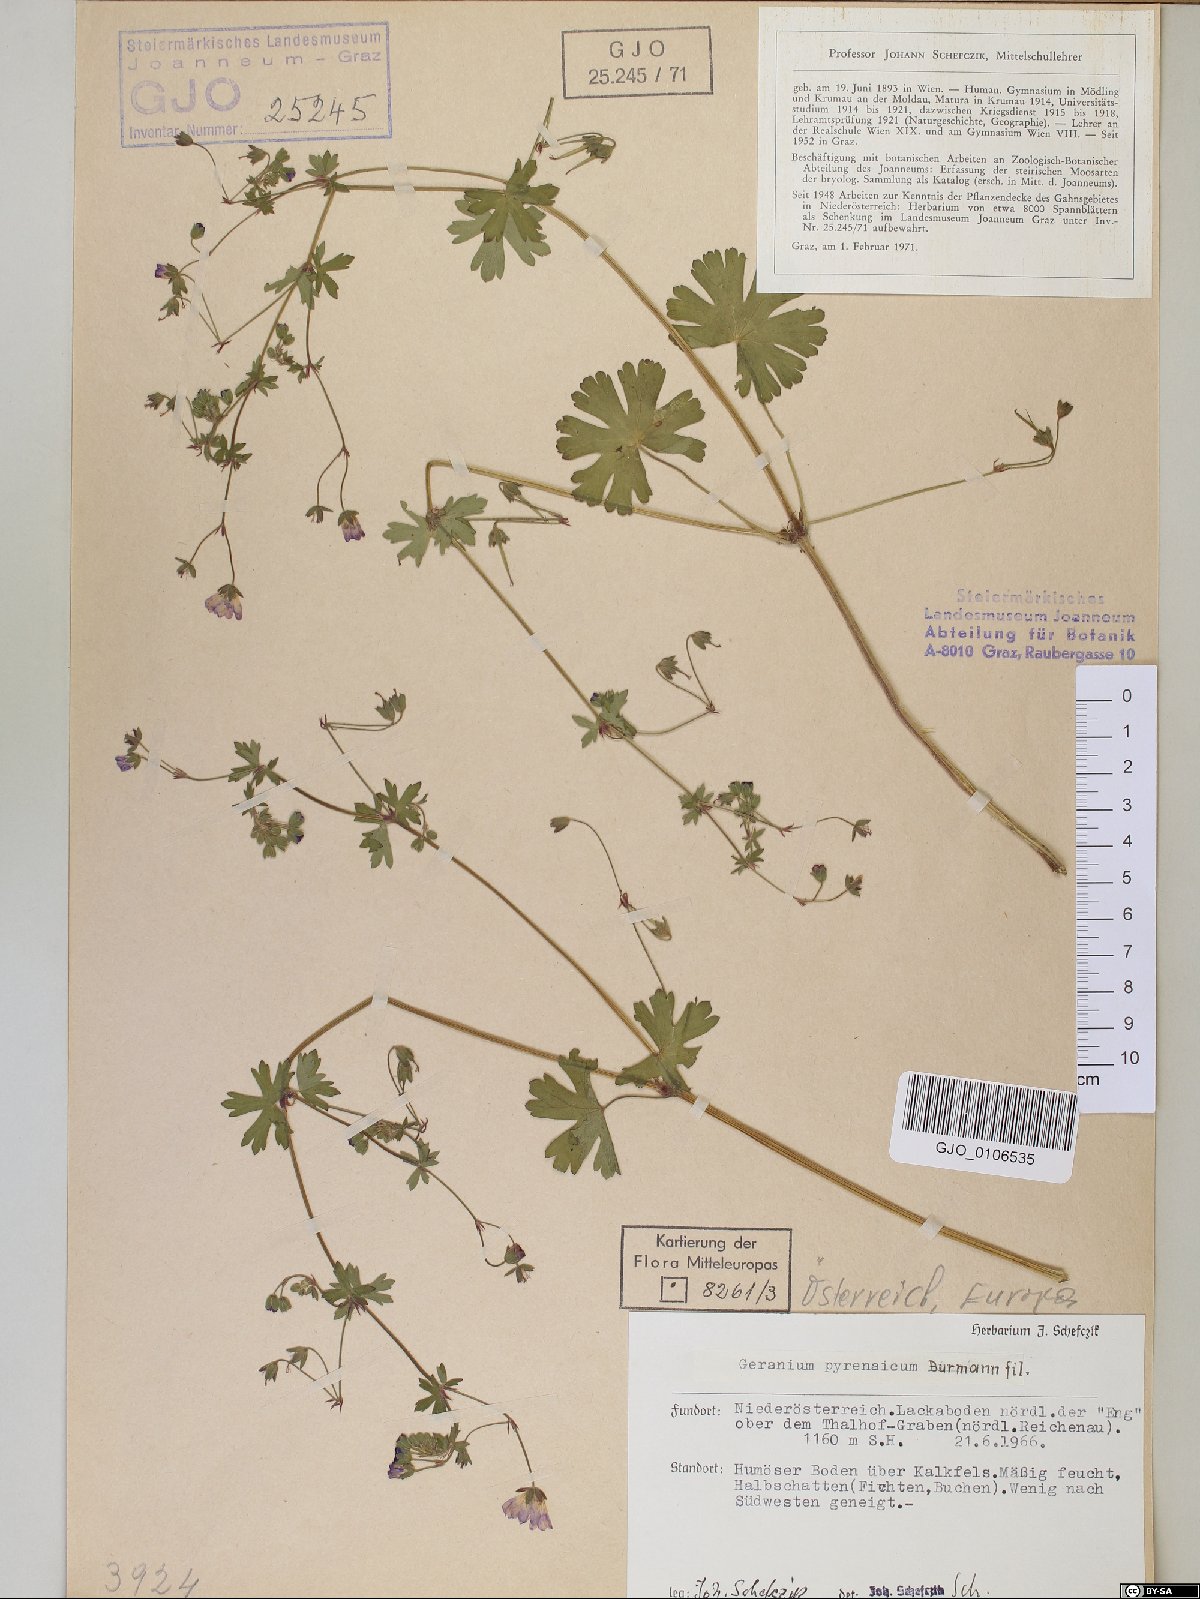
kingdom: Plantae
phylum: Tracheophyta
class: Magnoliopsida
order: Geraniales
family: Geraniaceae
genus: Geranium
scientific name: Geranium pyrenaicum
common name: Hedgerow crane's-bill
